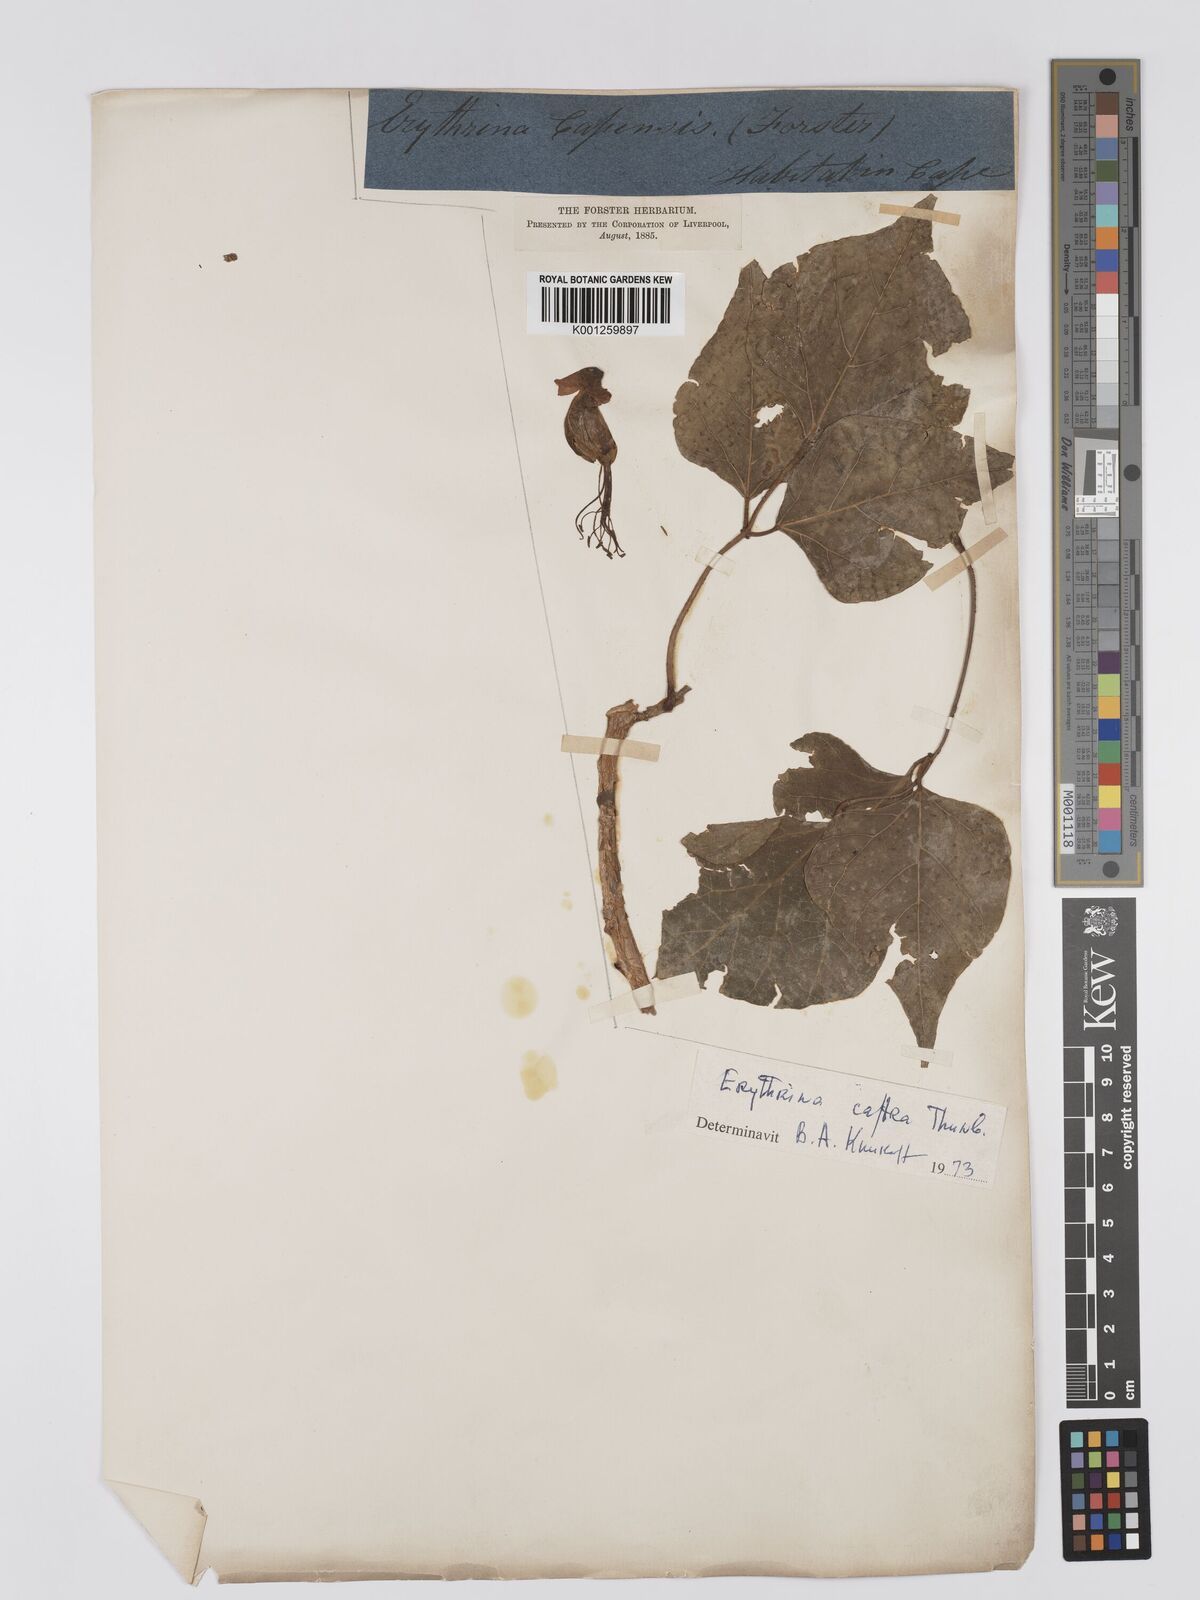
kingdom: Plantae
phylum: Tracheophyta
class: Magnoliopsida
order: Fabales
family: Fabaceae
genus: Erythrina
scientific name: Erythrina caffra
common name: Coast coral tree
